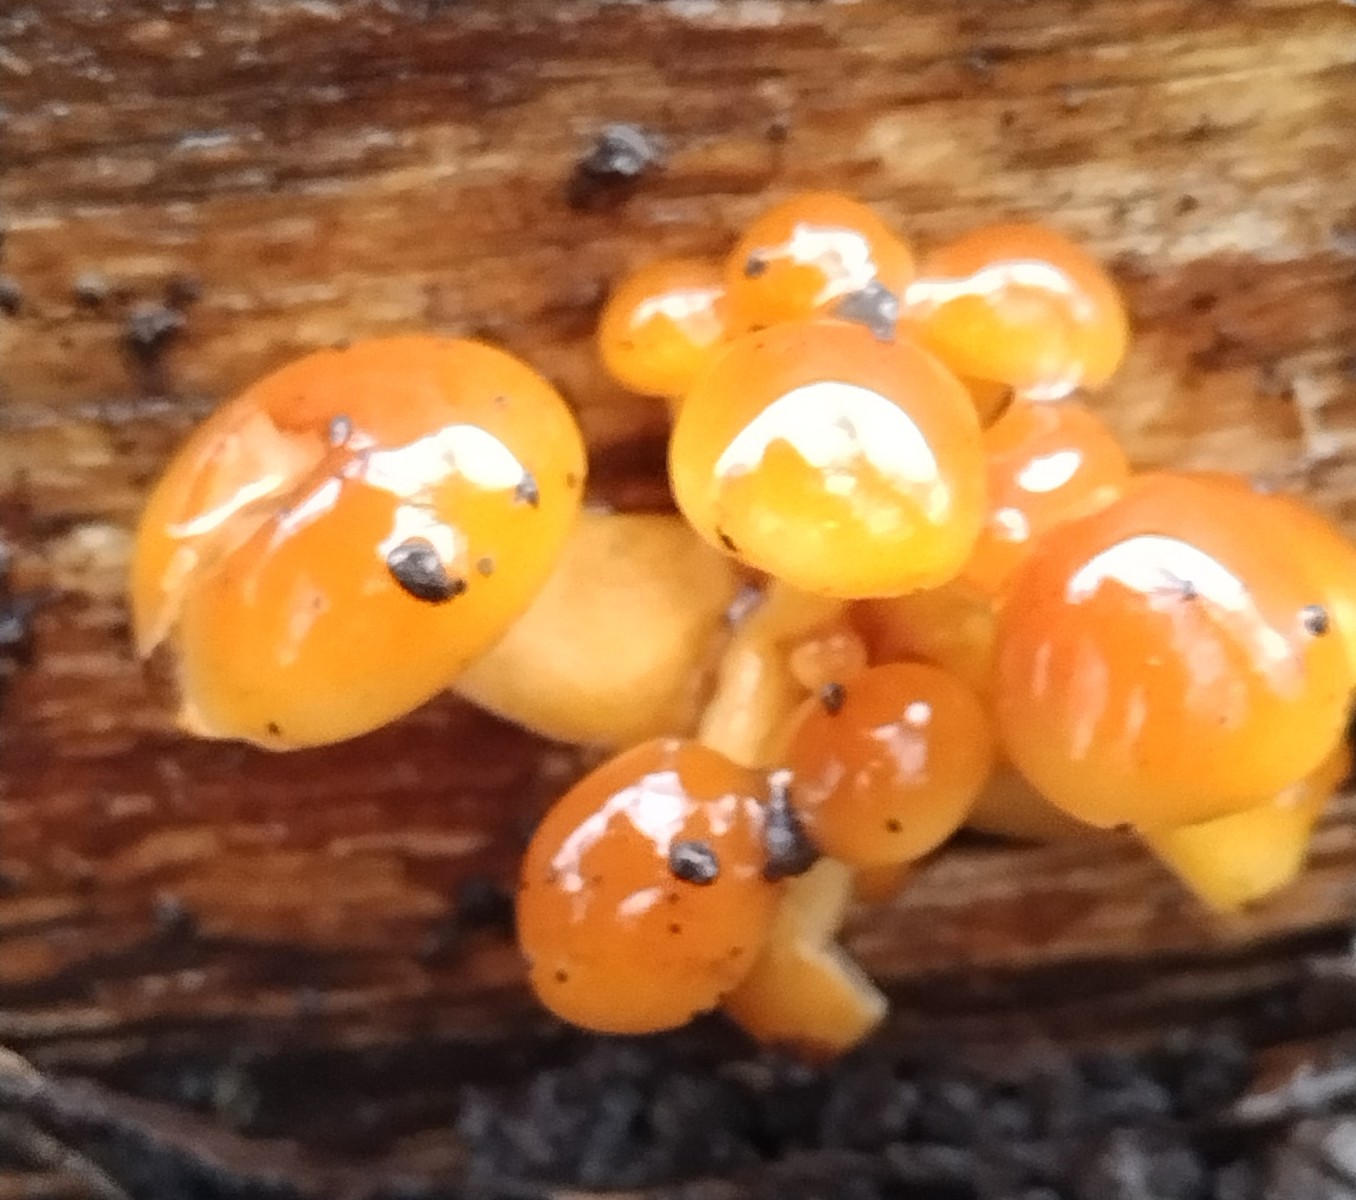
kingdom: Fungi
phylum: Basidiomycota
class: Agaricomycetes
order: Agaricales
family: Physalacriaceae
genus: Flammulina
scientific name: Flammulina
